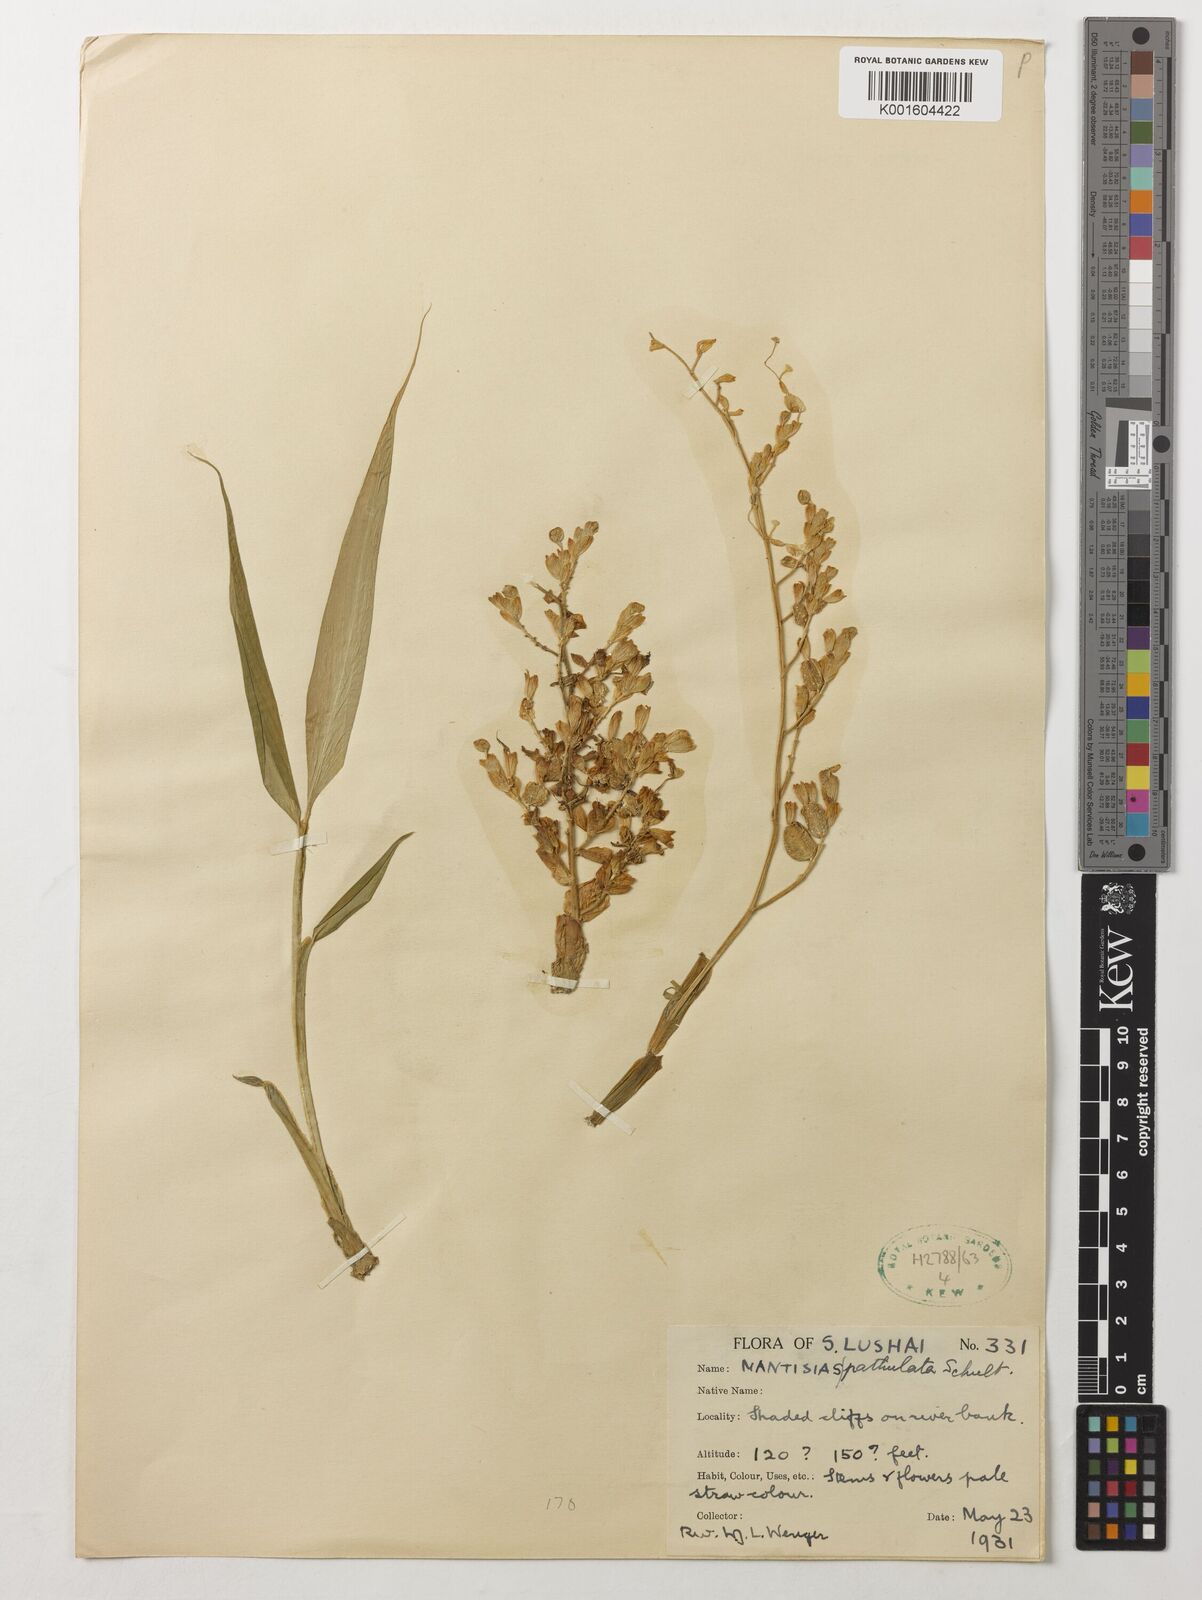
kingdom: Plantae
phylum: Tracheophyta
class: Liliopsida
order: Zingiberales
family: Zingiberaceae
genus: Globba
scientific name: Globba spathulata
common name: Dancing girl flower
